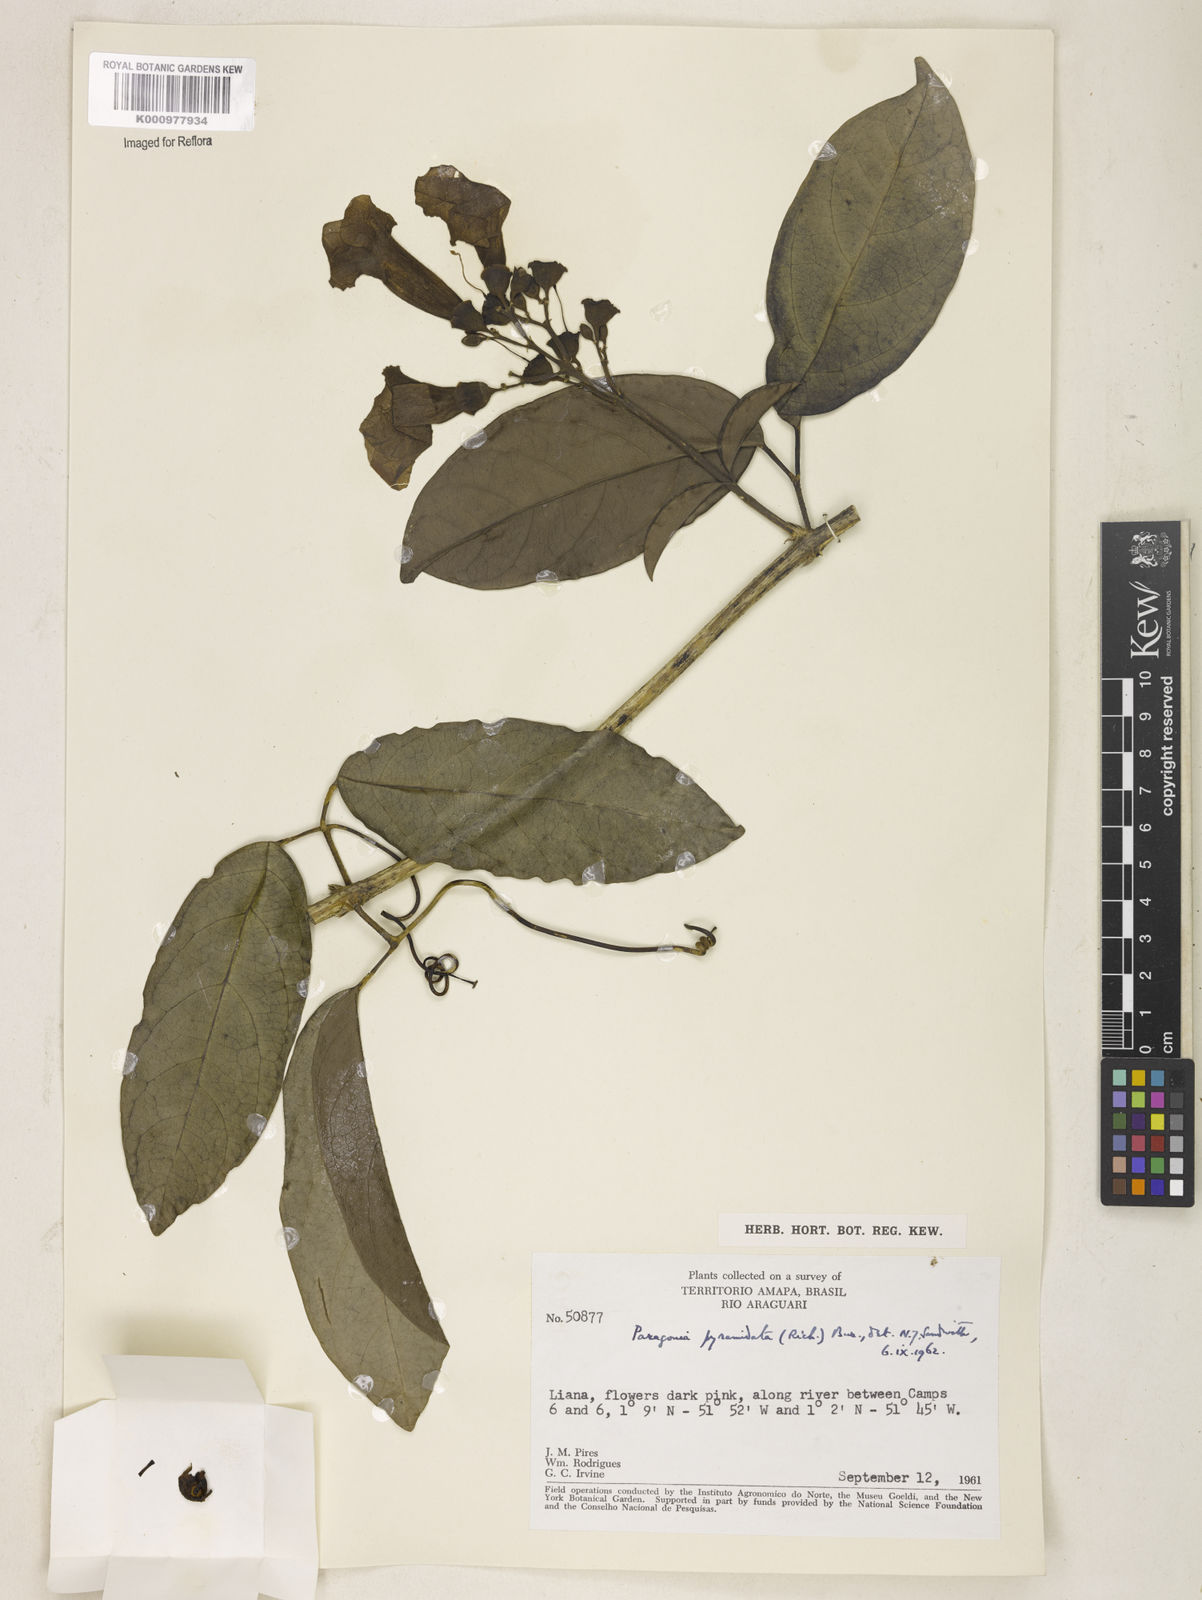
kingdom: Plantae
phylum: Tracheophyta
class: Magnoliopsida
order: Lamiales
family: Bignoniaceae
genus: Tanaecium
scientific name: Tanaecium pyramidatum
